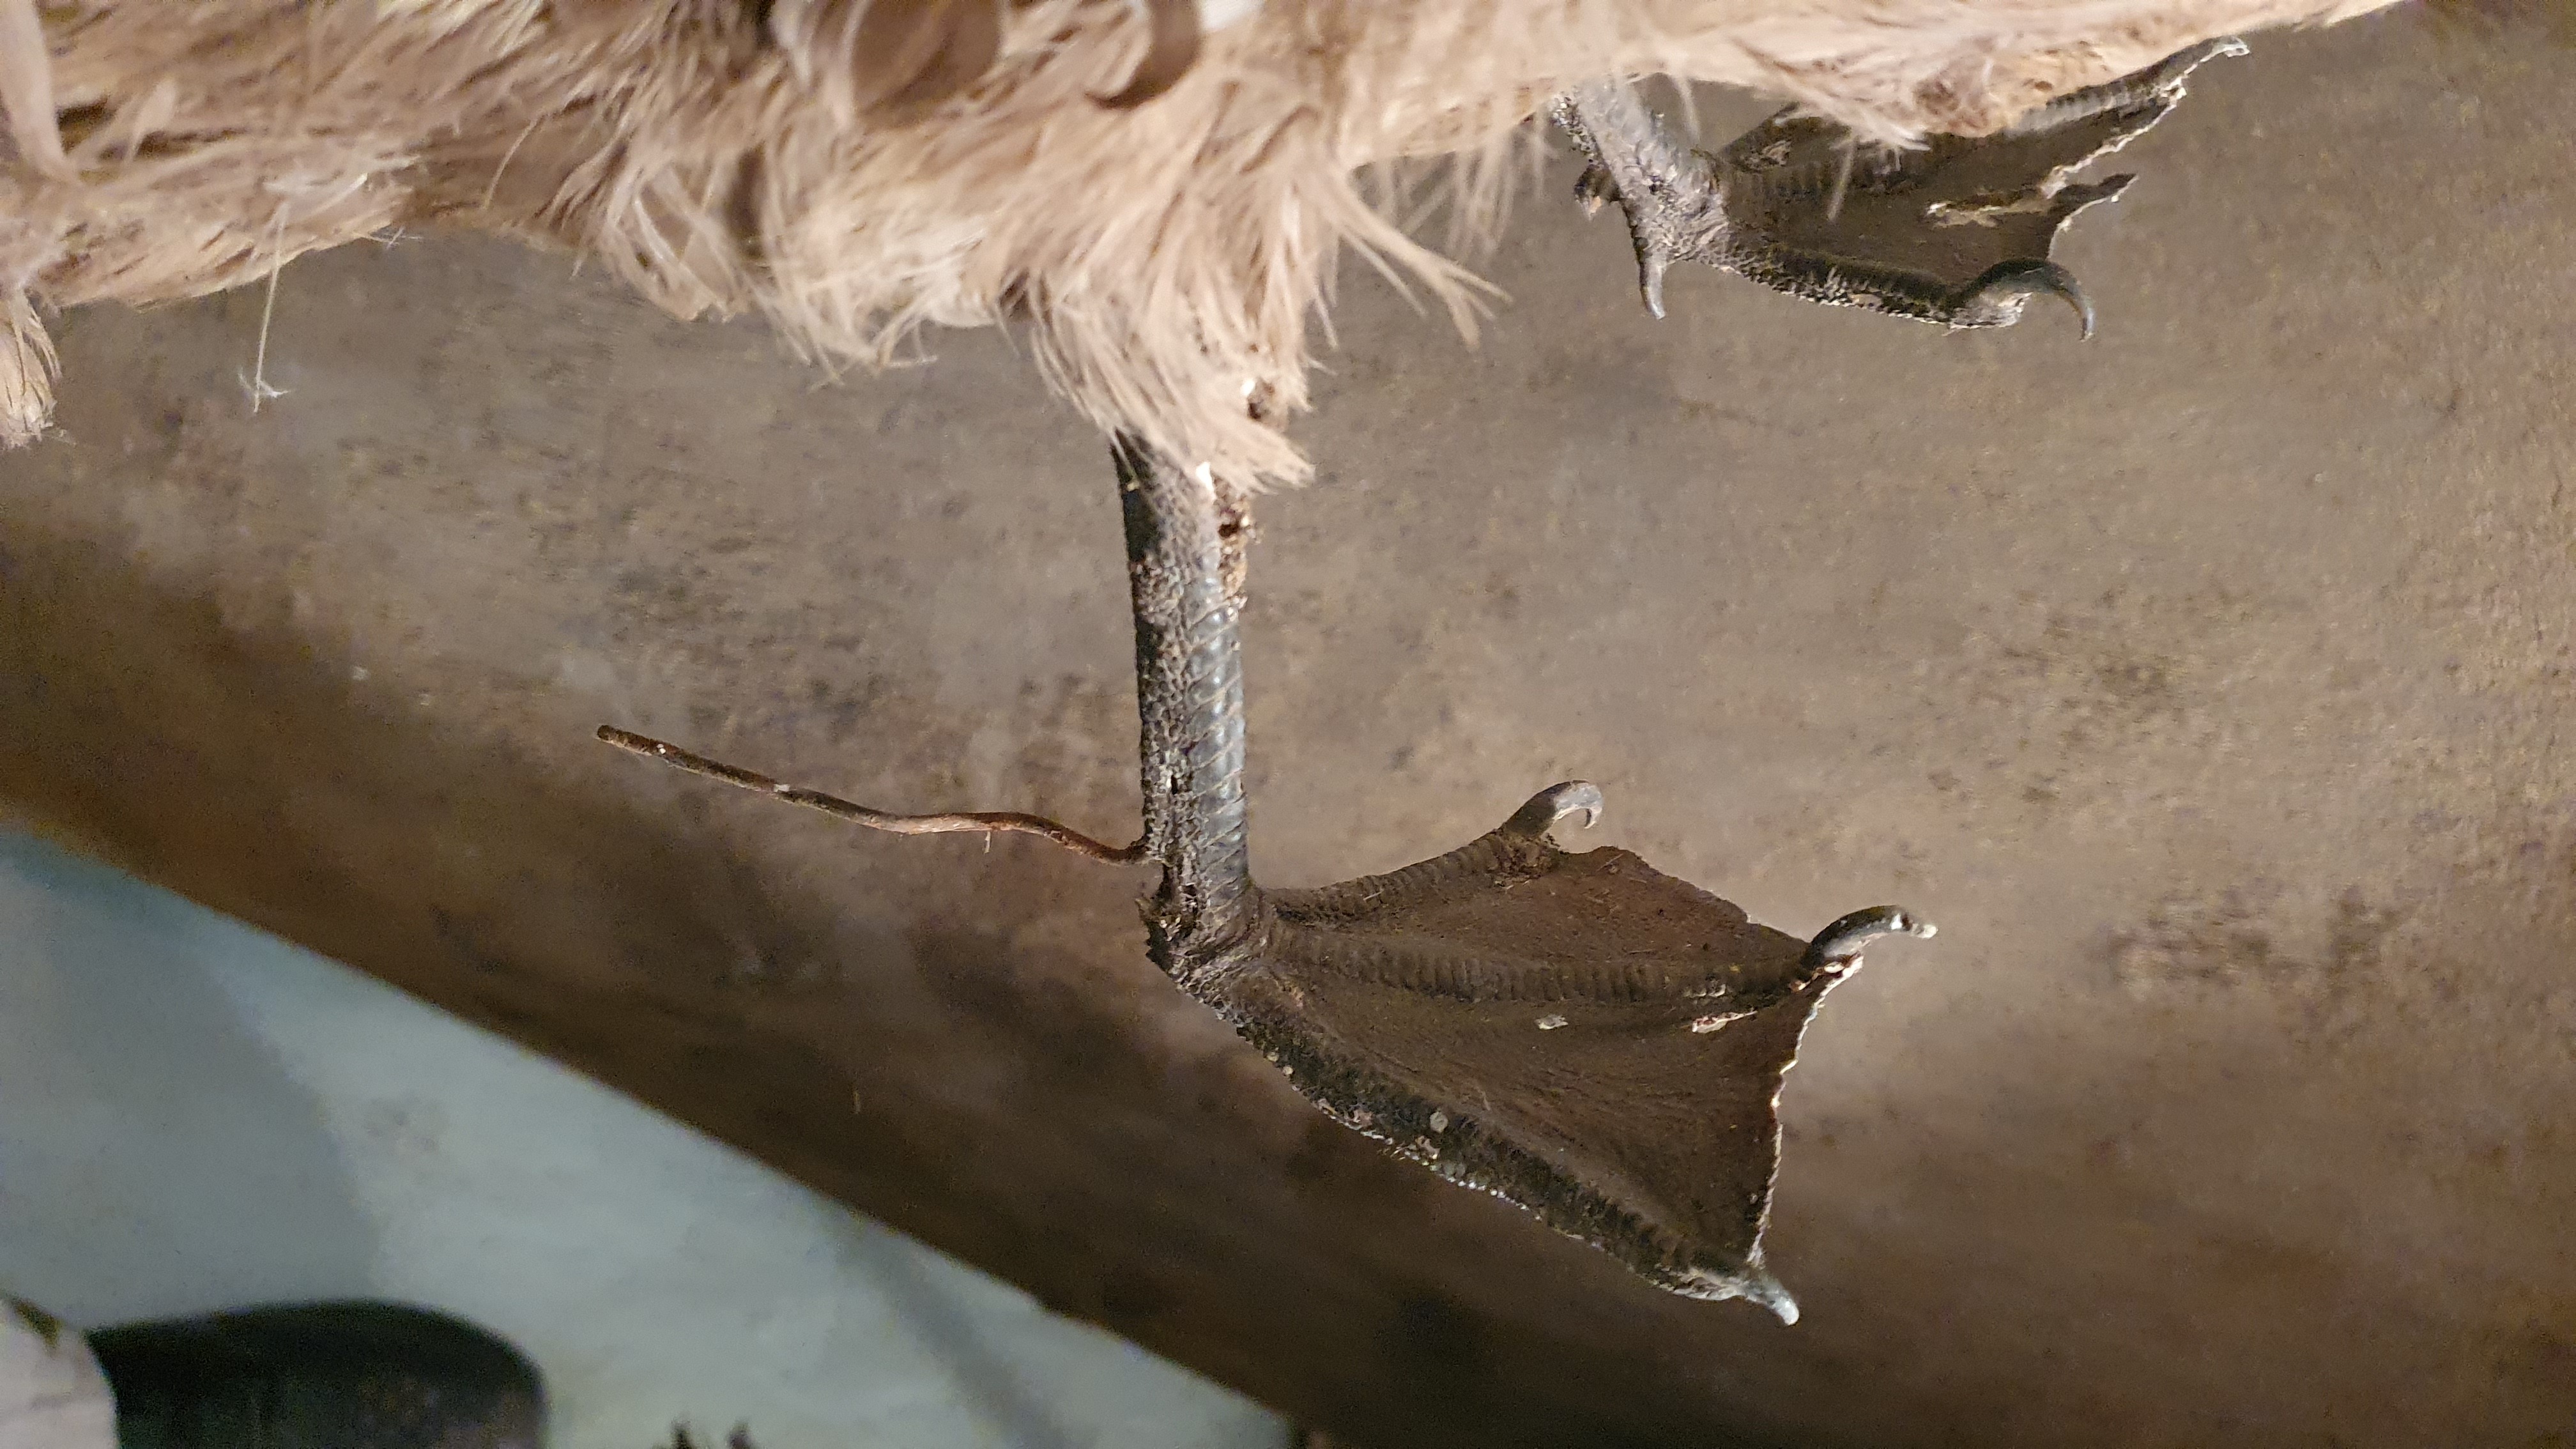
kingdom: Animalia
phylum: Chordata
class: Aves
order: Charadriiformes
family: Stercorariidae
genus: Stercorarius
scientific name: Stercorarius
